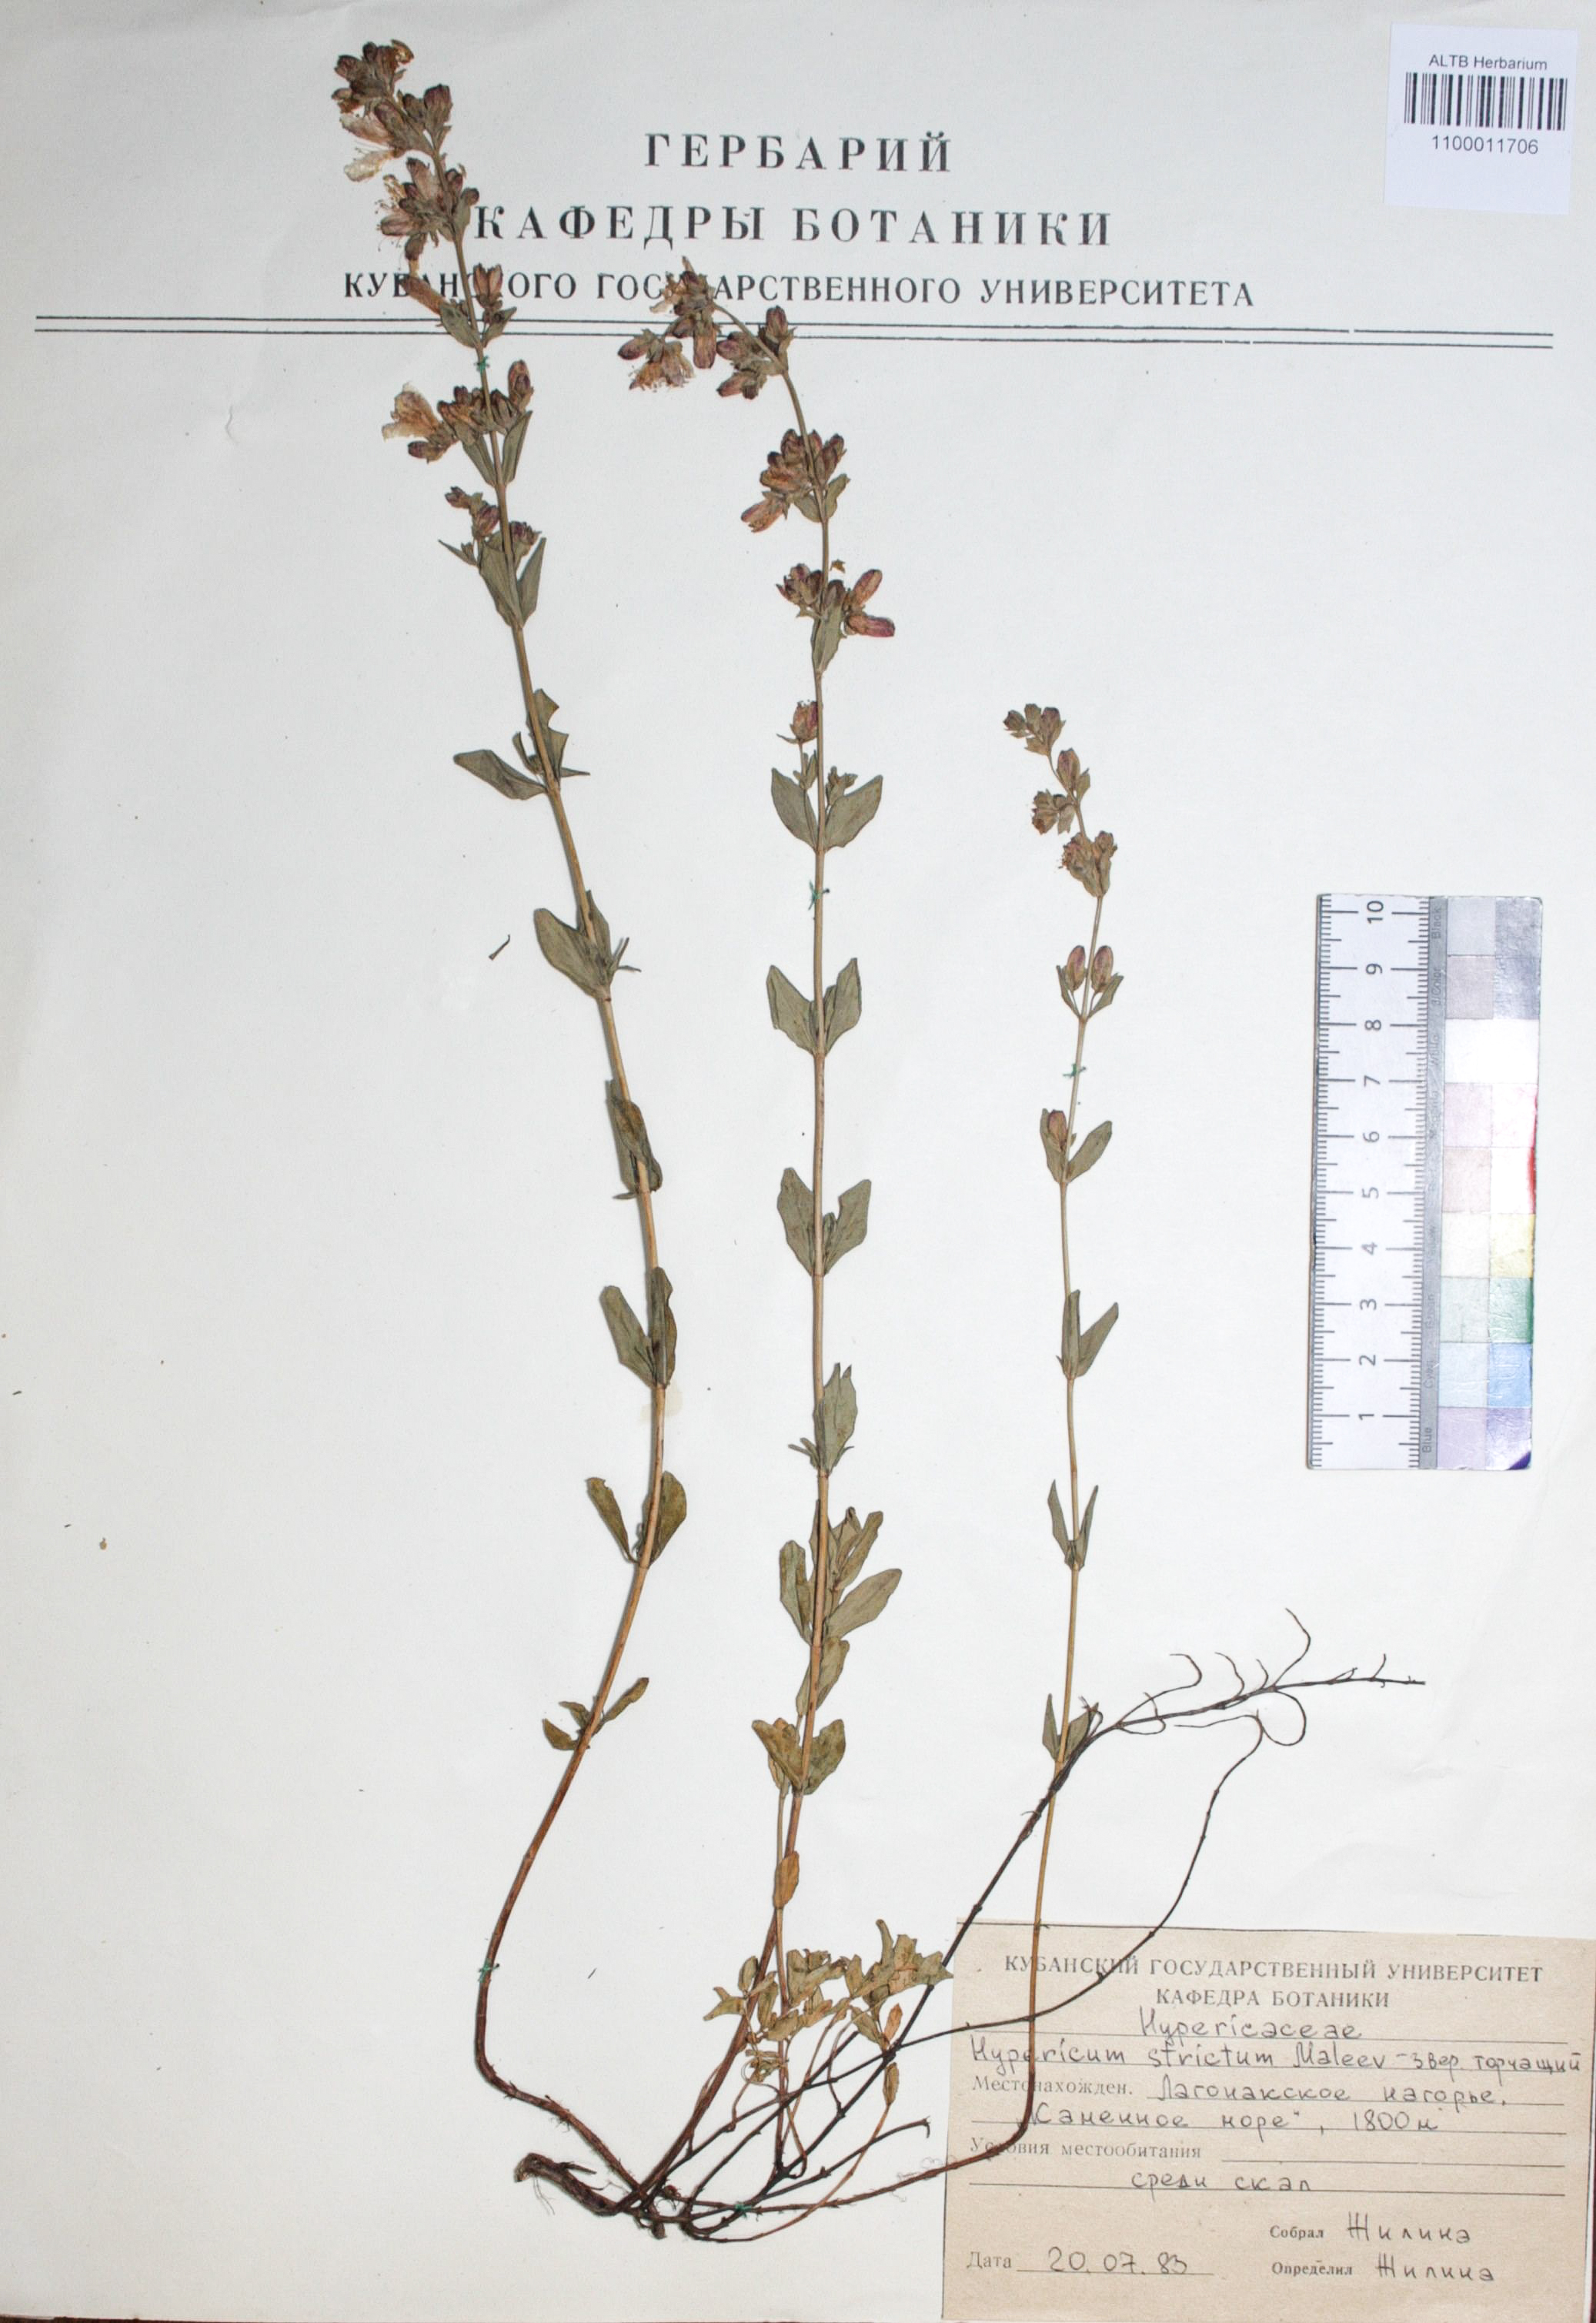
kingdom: Plantae
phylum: Tracheophyta
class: Magnoliopsida
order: Malpighiales
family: Hypericaceae
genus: Hypericum
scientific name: Hypericum montbretii
